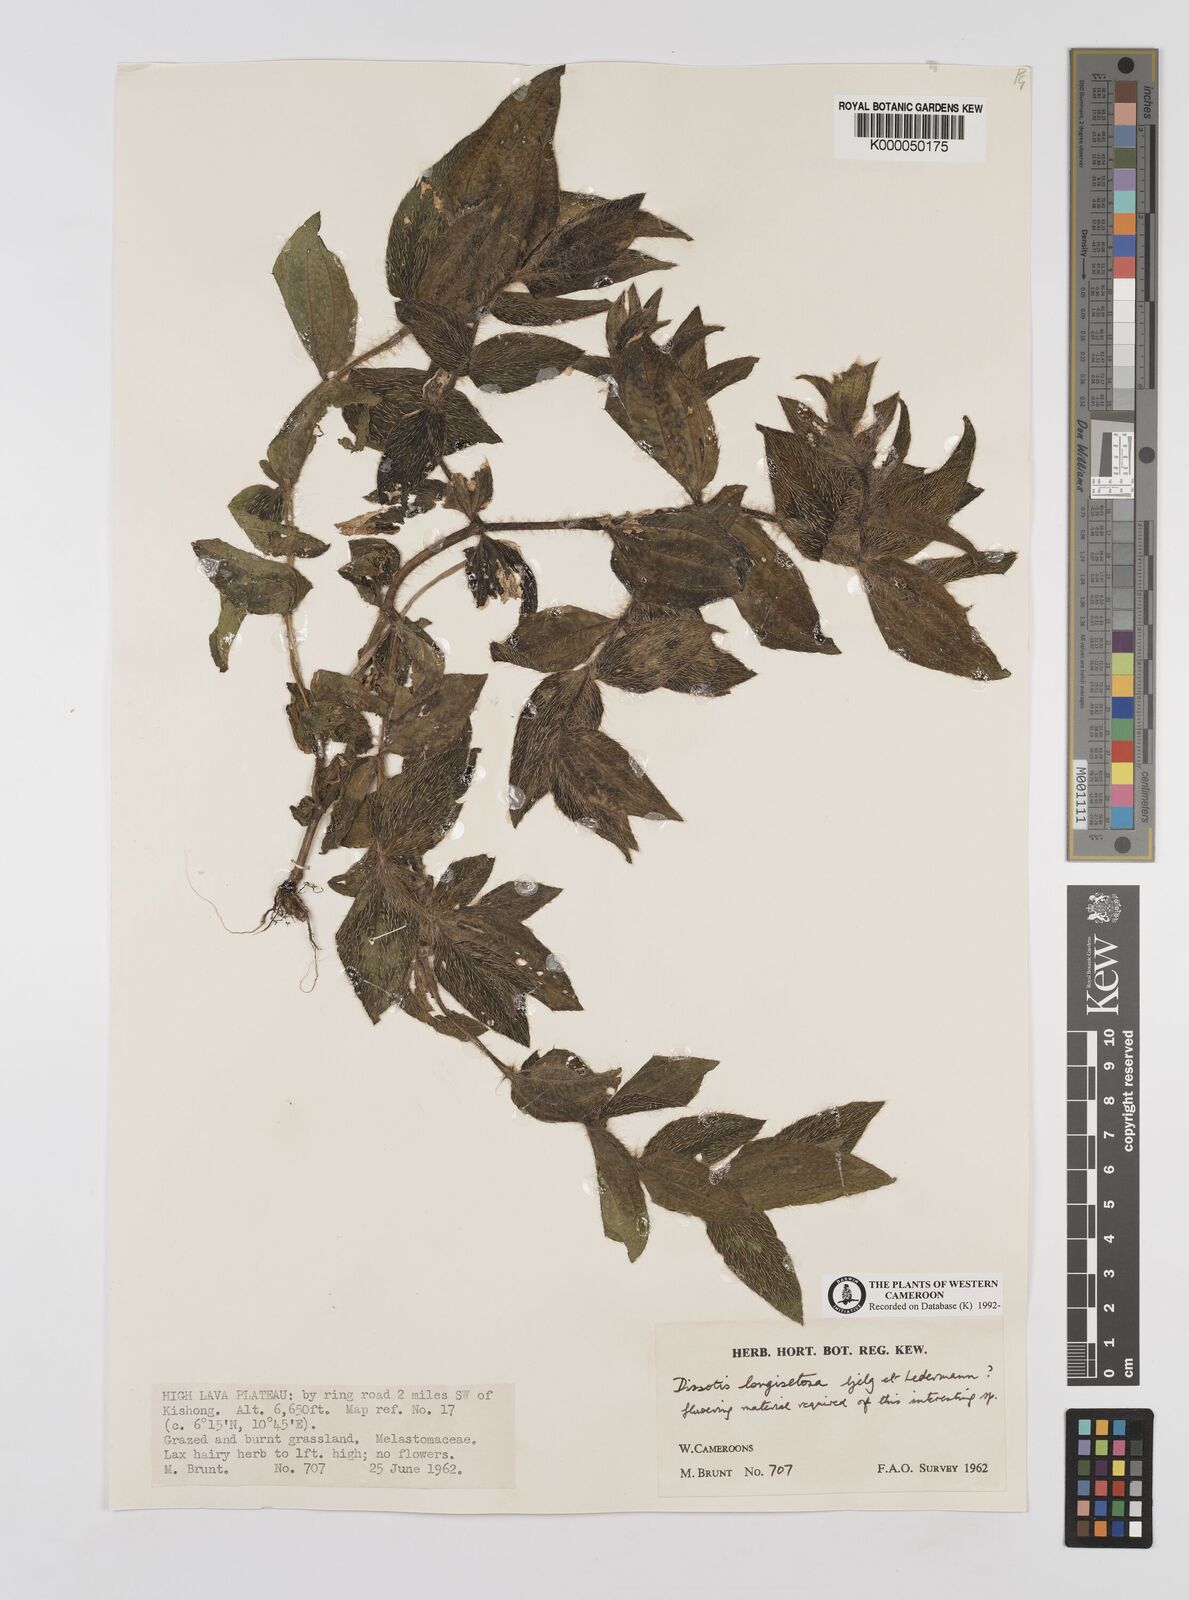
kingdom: Plantae
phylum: Tracheophyta
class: Magnoliopsida
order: Myrtales
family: Melastomataceae
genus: Dissotis
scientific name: Dissotis longisetosa
